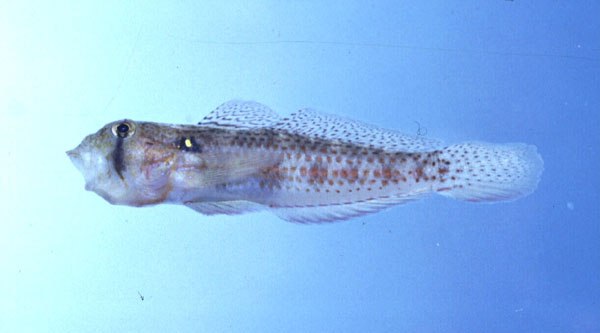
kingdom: Animalia
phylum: Chordata
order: Perciformes
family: Gobiidae
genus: Gnatholepis
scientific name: Gnatholepis cauerensis
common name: Bridled goby
